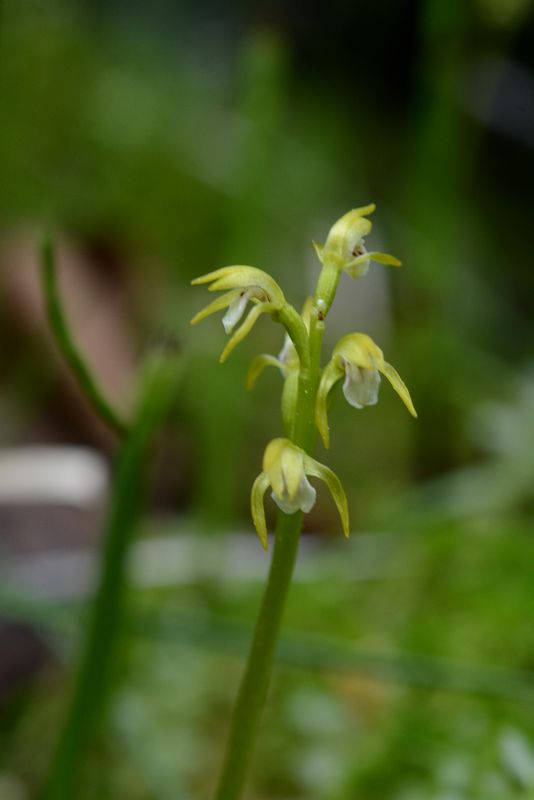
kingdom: Plantae
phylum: Tracheophyta
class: Liliopsida
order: Asparagales
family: Orchidaceae
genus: Corallorhiza
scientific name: Corallorhiza trifida
